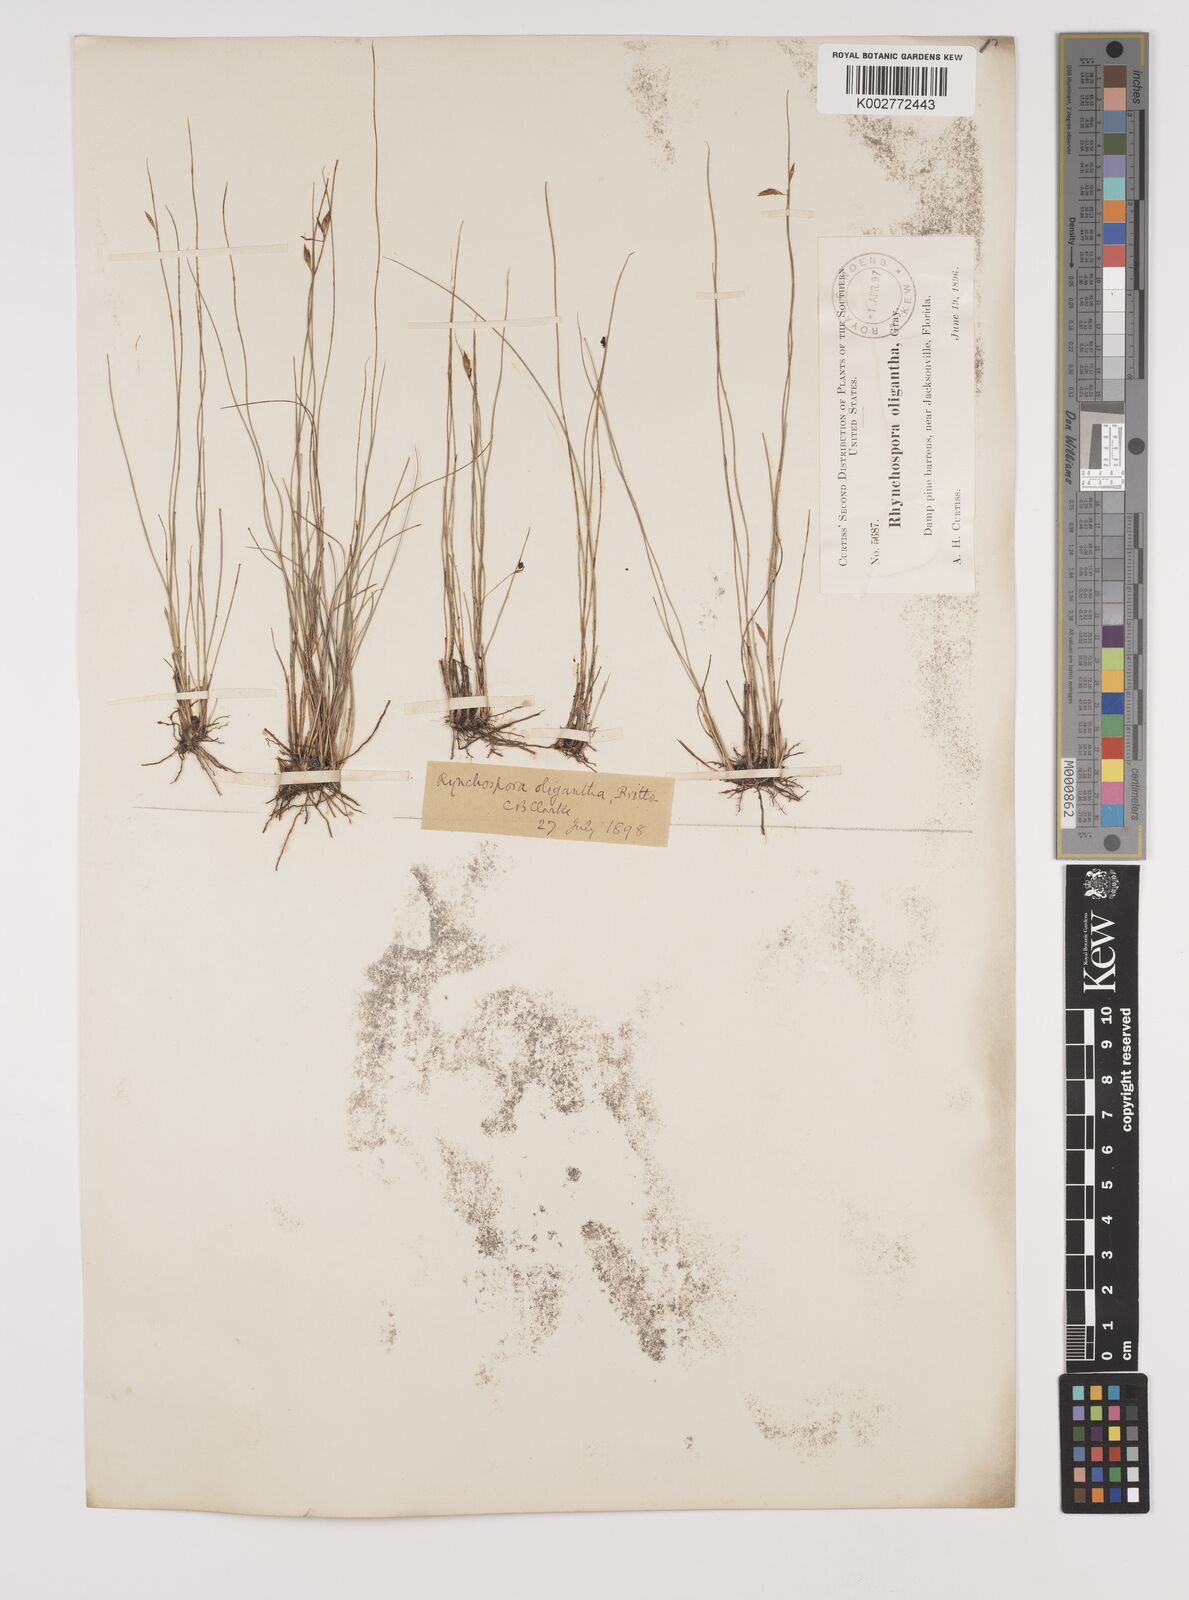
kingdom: Plantae
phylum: Tracheophyta
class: Liliopsida
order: Poales
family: Cyperaceae
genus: Rhynchospora
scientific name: Rhynchospora oligantha
